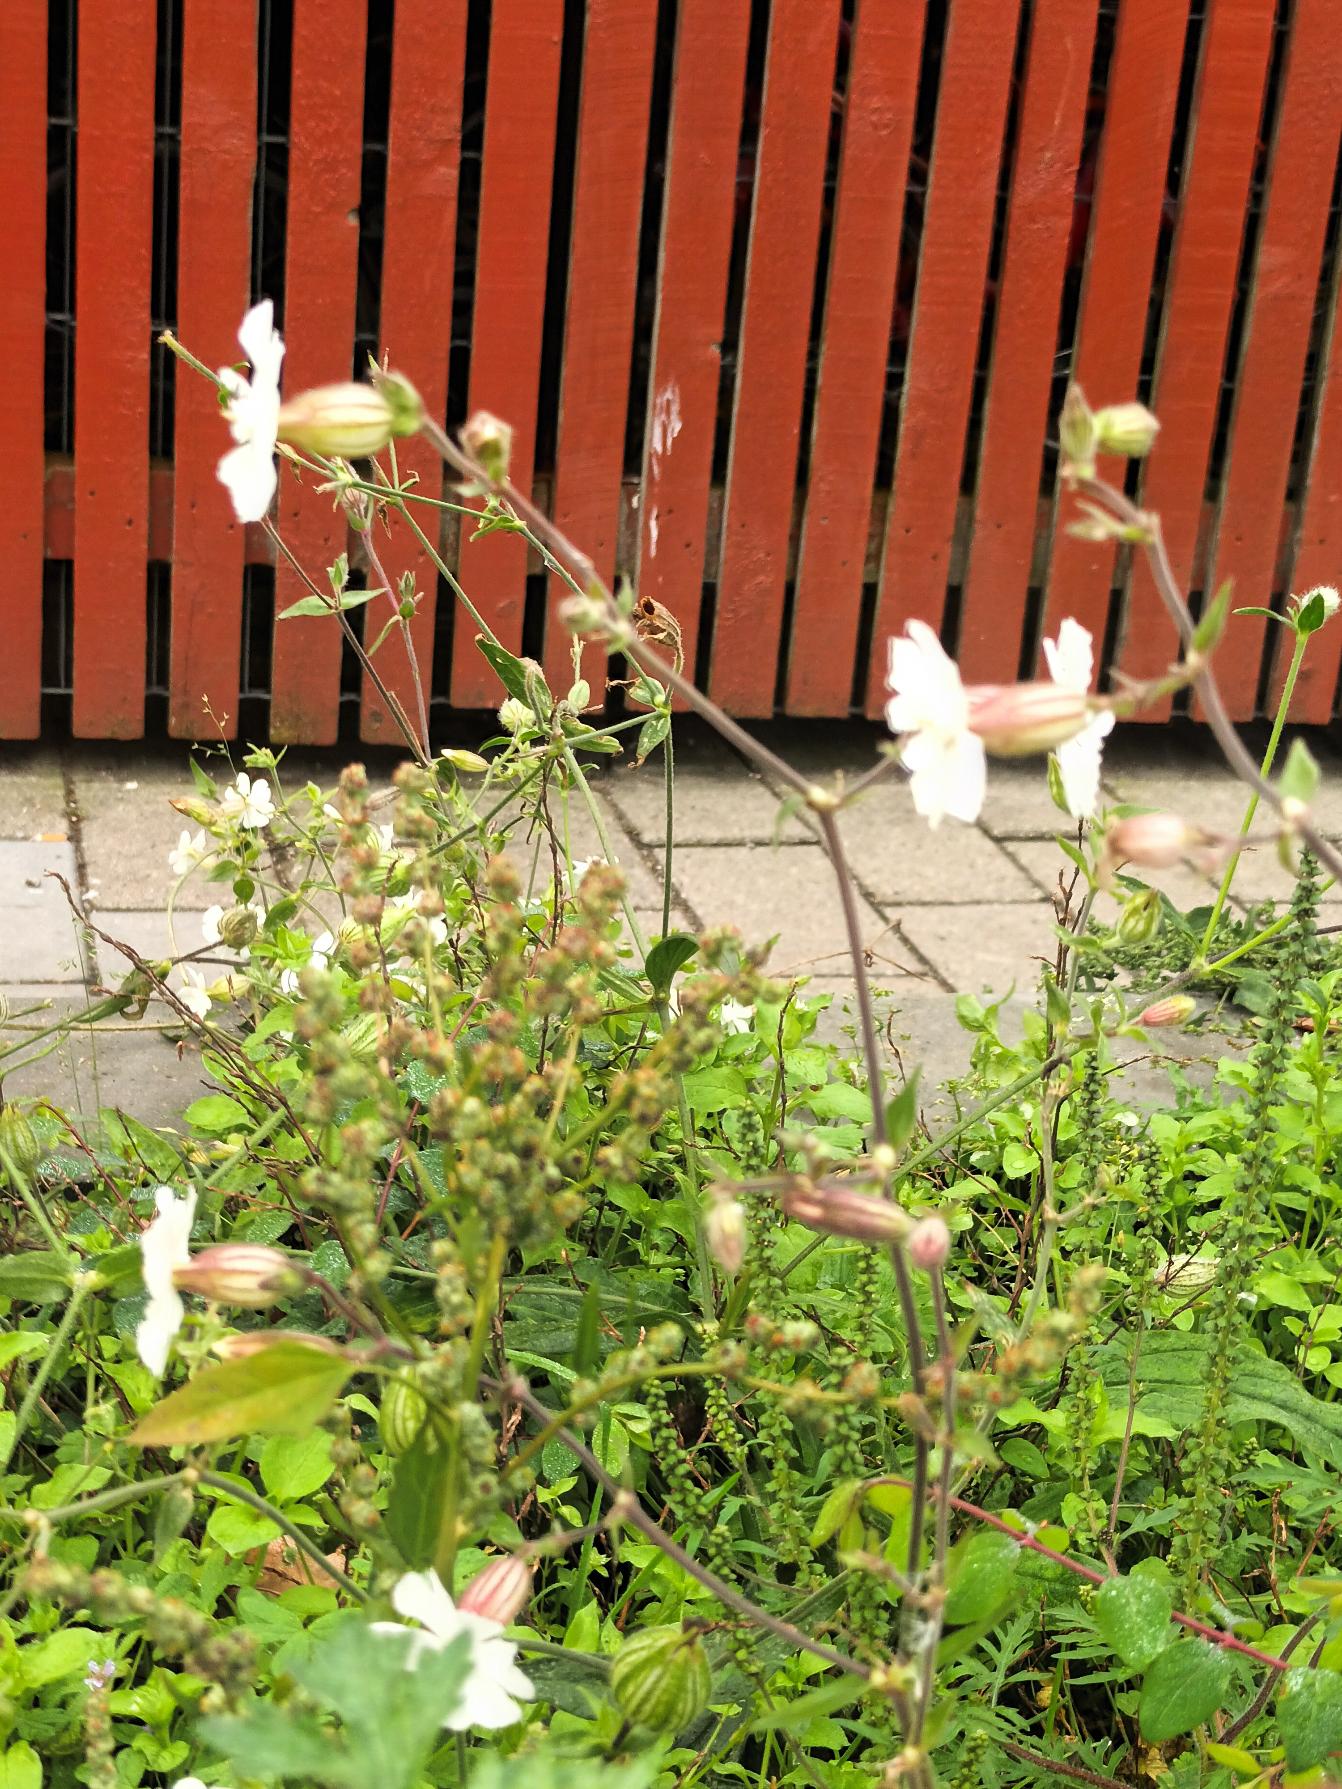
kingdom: Plantae
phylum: Tracheophyta
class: Magnoliopsida
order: Caryophyllales
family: Caryophyllaceae
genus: Silene
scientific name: Silene latifolia
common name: Aftenpragtstjerne
